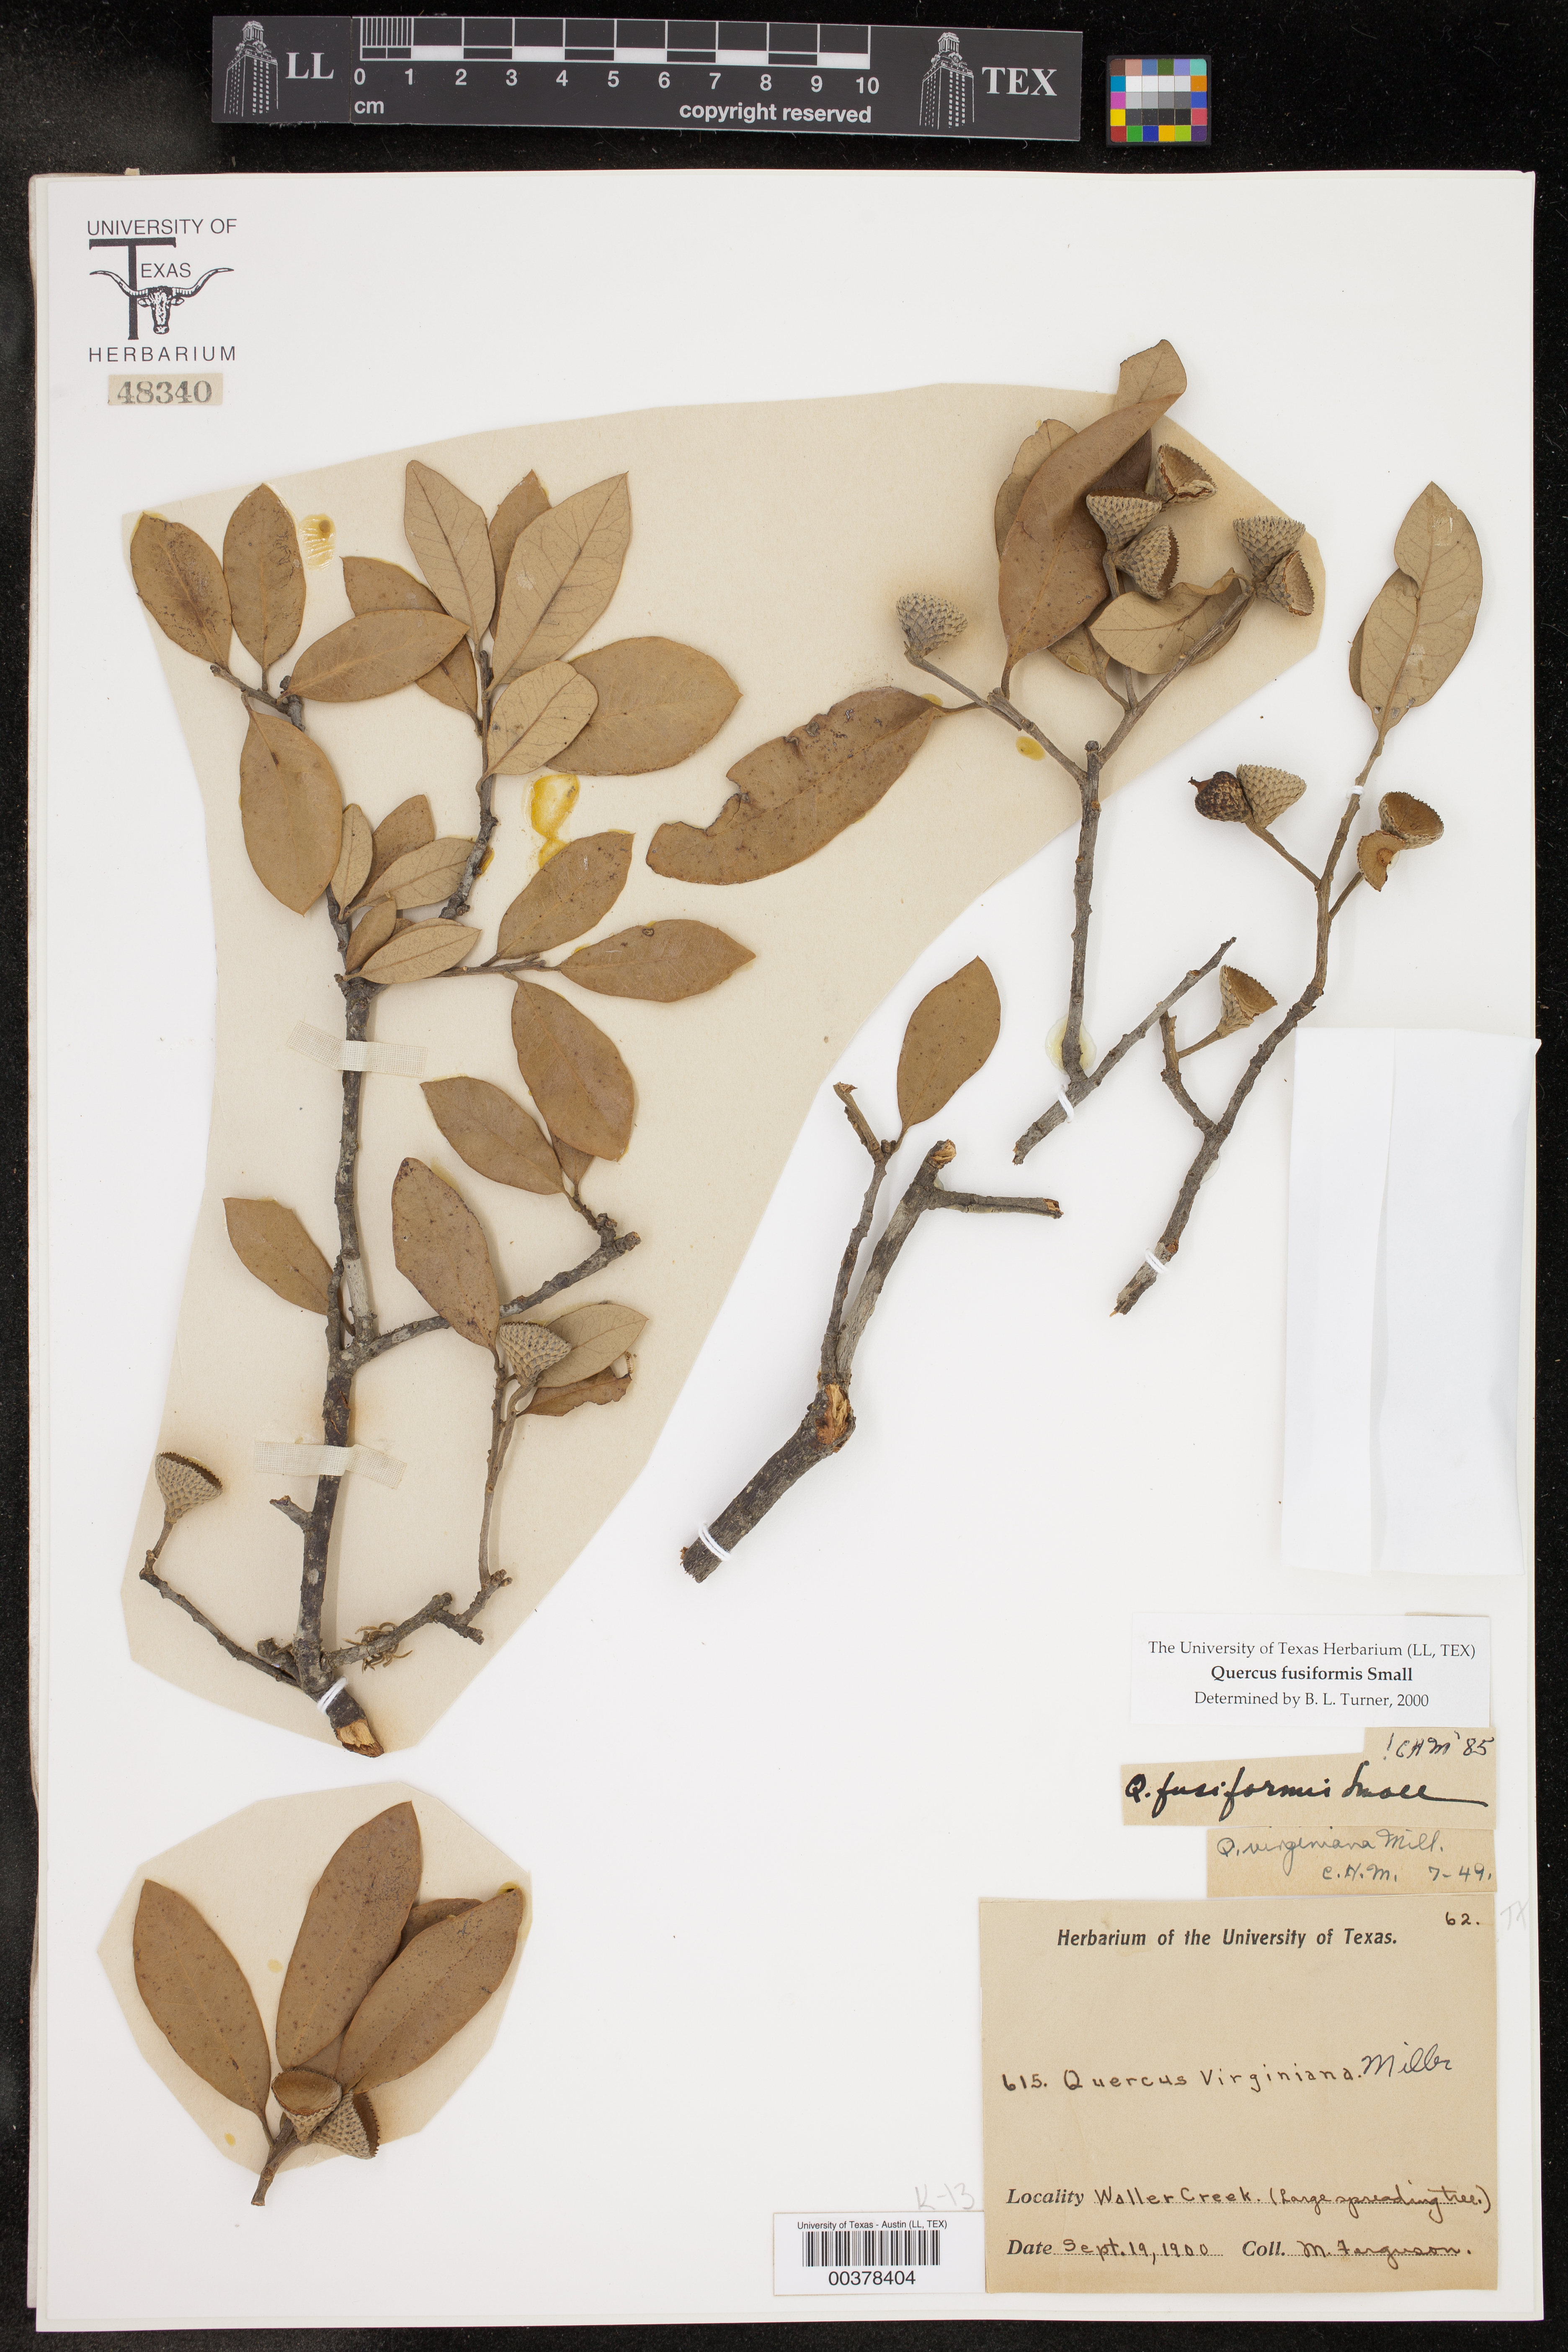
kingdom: Plantae
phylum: Tracheophyta
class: Magnoliopsida
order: Fagales
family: Fagaceae
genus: Quercus
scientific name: Quercus fusiformis
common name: Texas live oak
